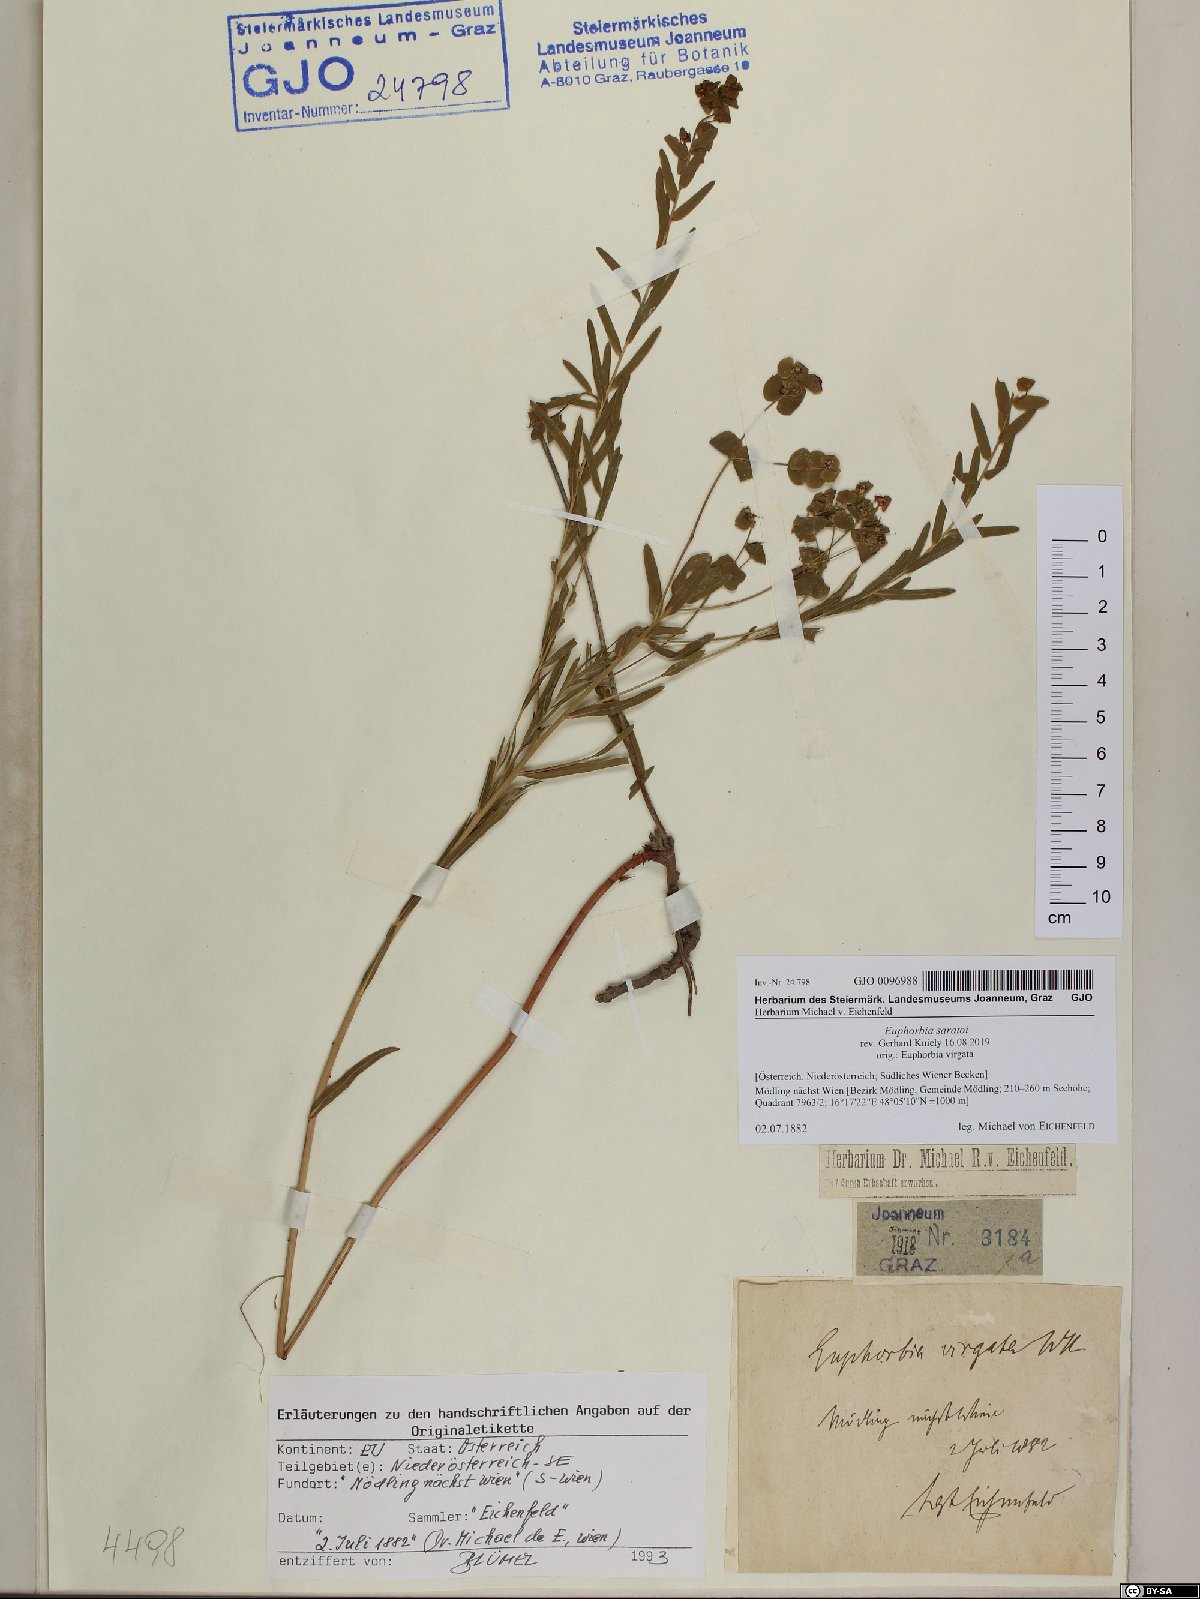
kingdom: Plantae
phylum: Tracheophyta
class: Magnoliopsida
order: Malpighiales
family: Euphorbiaceae
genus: Euphorbia
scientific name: Euphorbia saratoi
